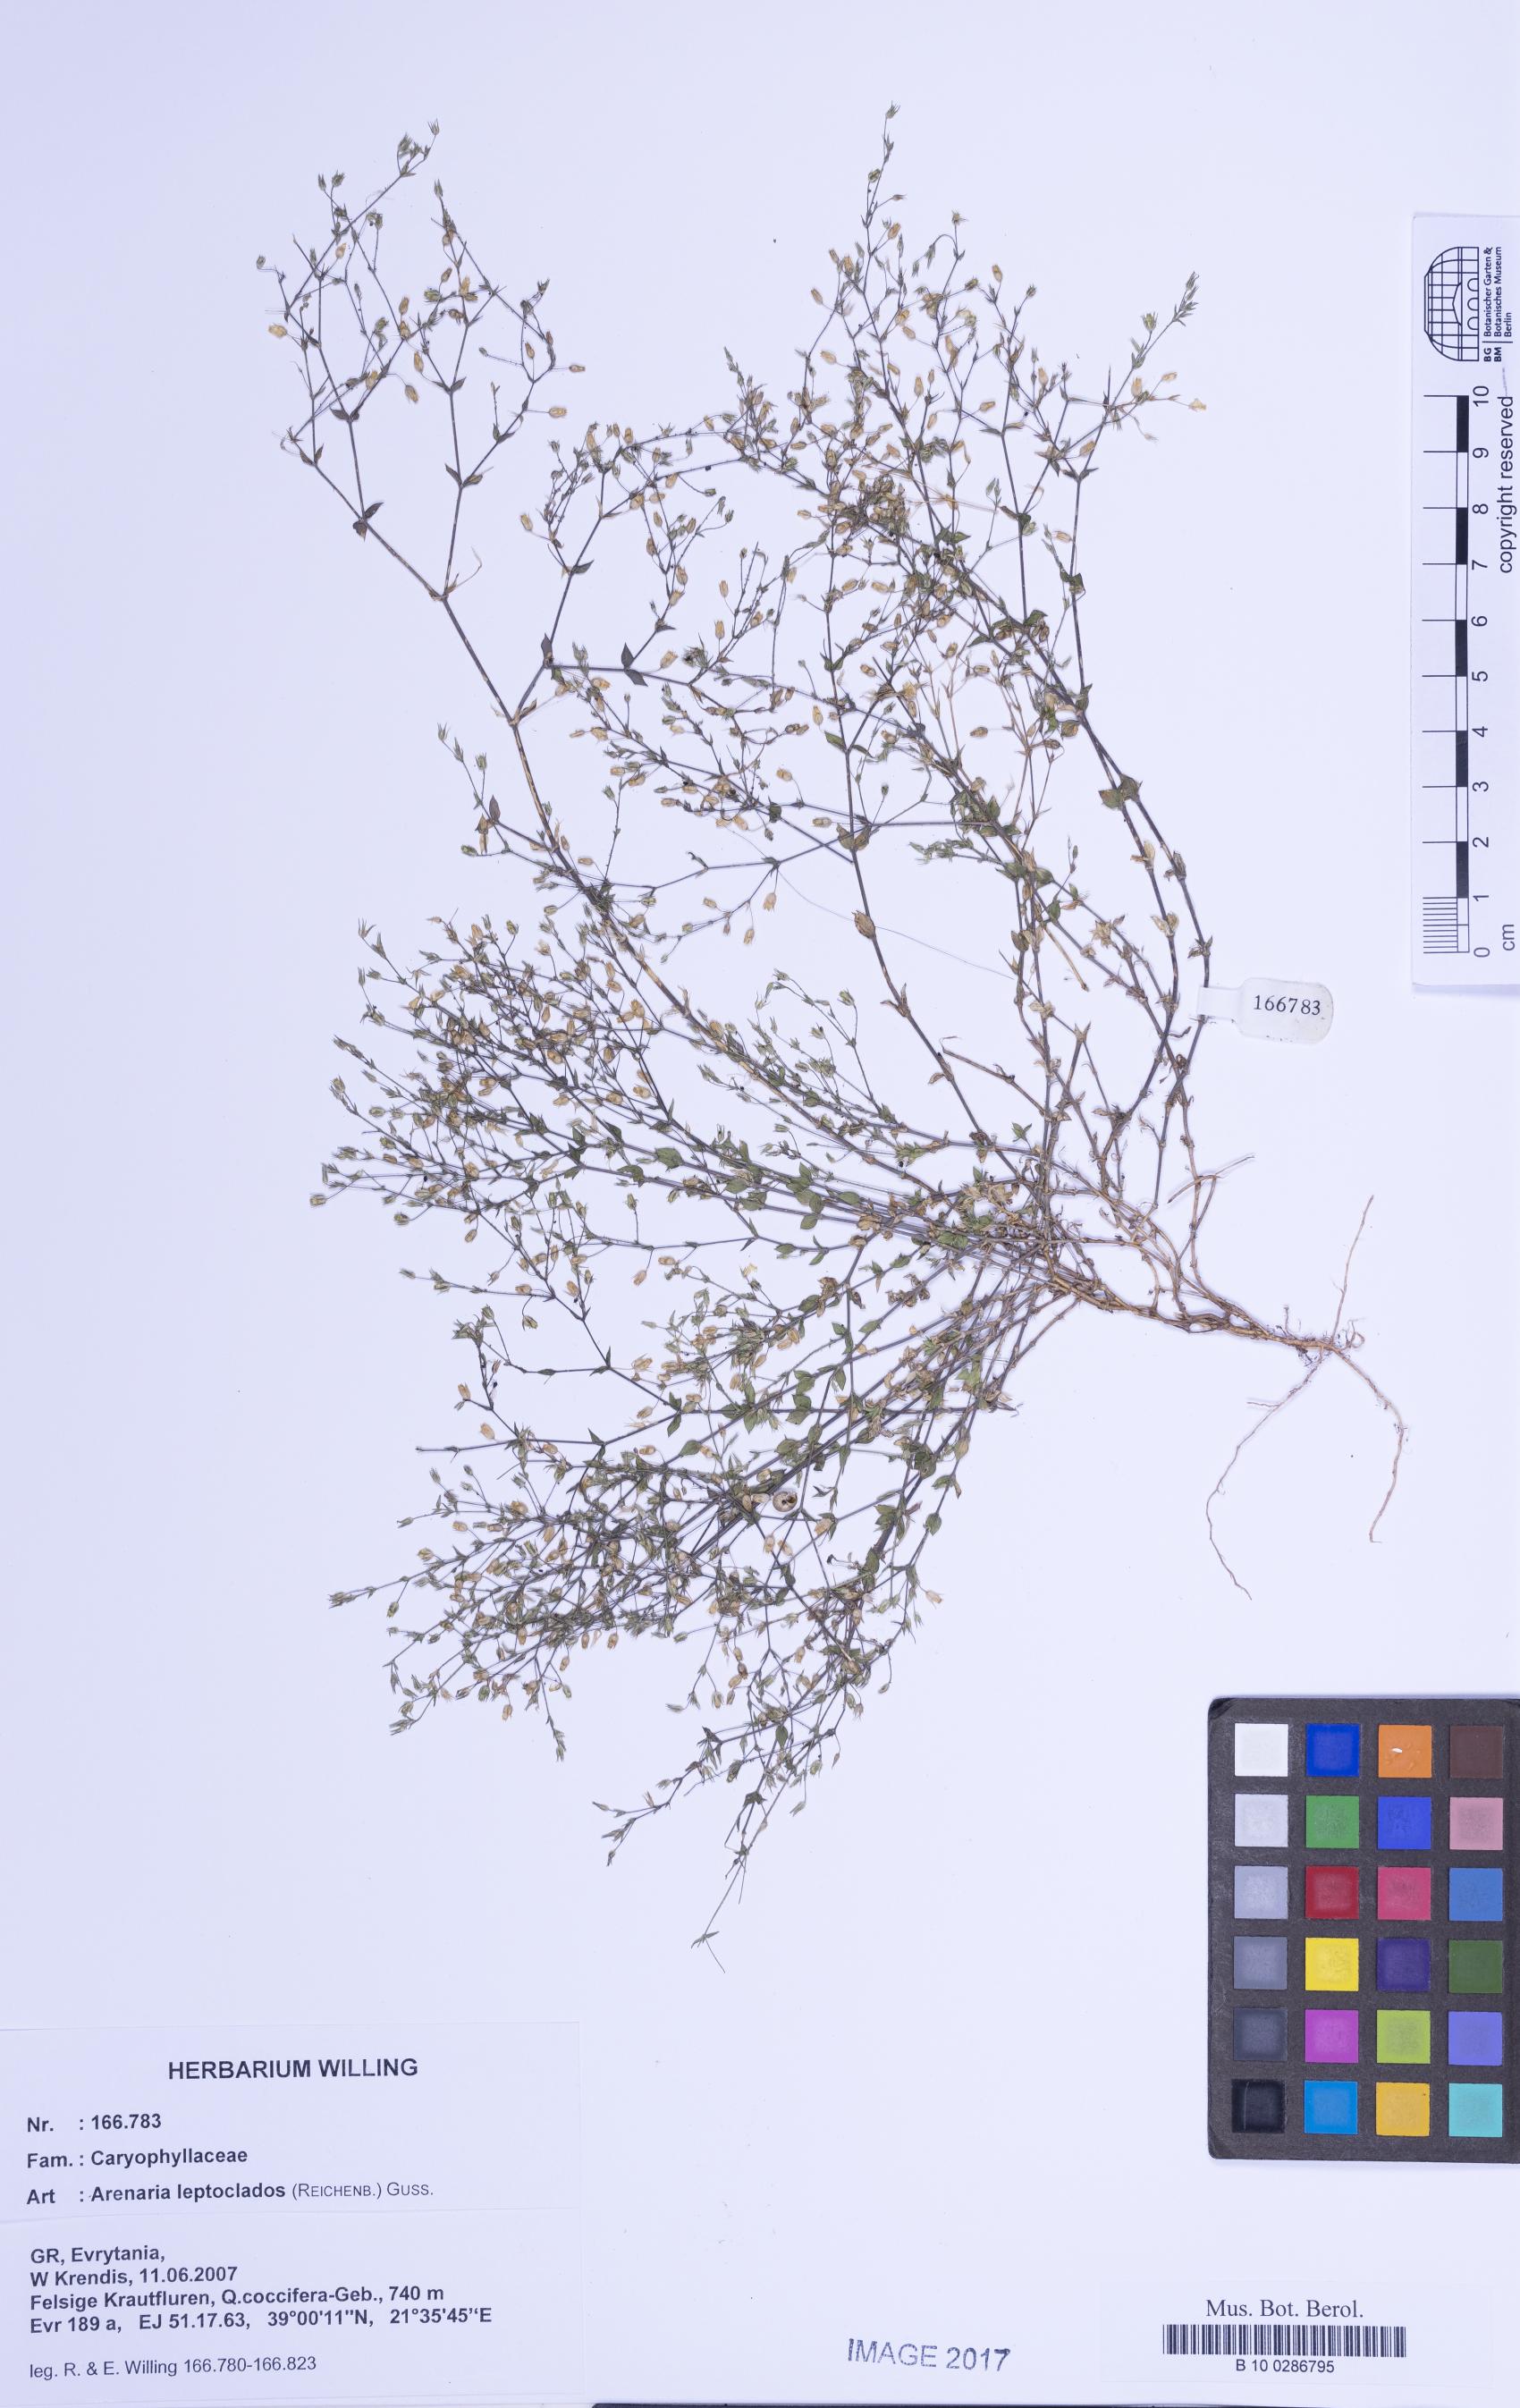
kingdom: Plantae
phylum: Tracheophyta
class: Magnoliopsida
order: Caryophyllales
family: Caryophyllaceae
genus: Arenaria
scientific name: Arenaria leptoclados
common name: Thyme-leaved sandwort
